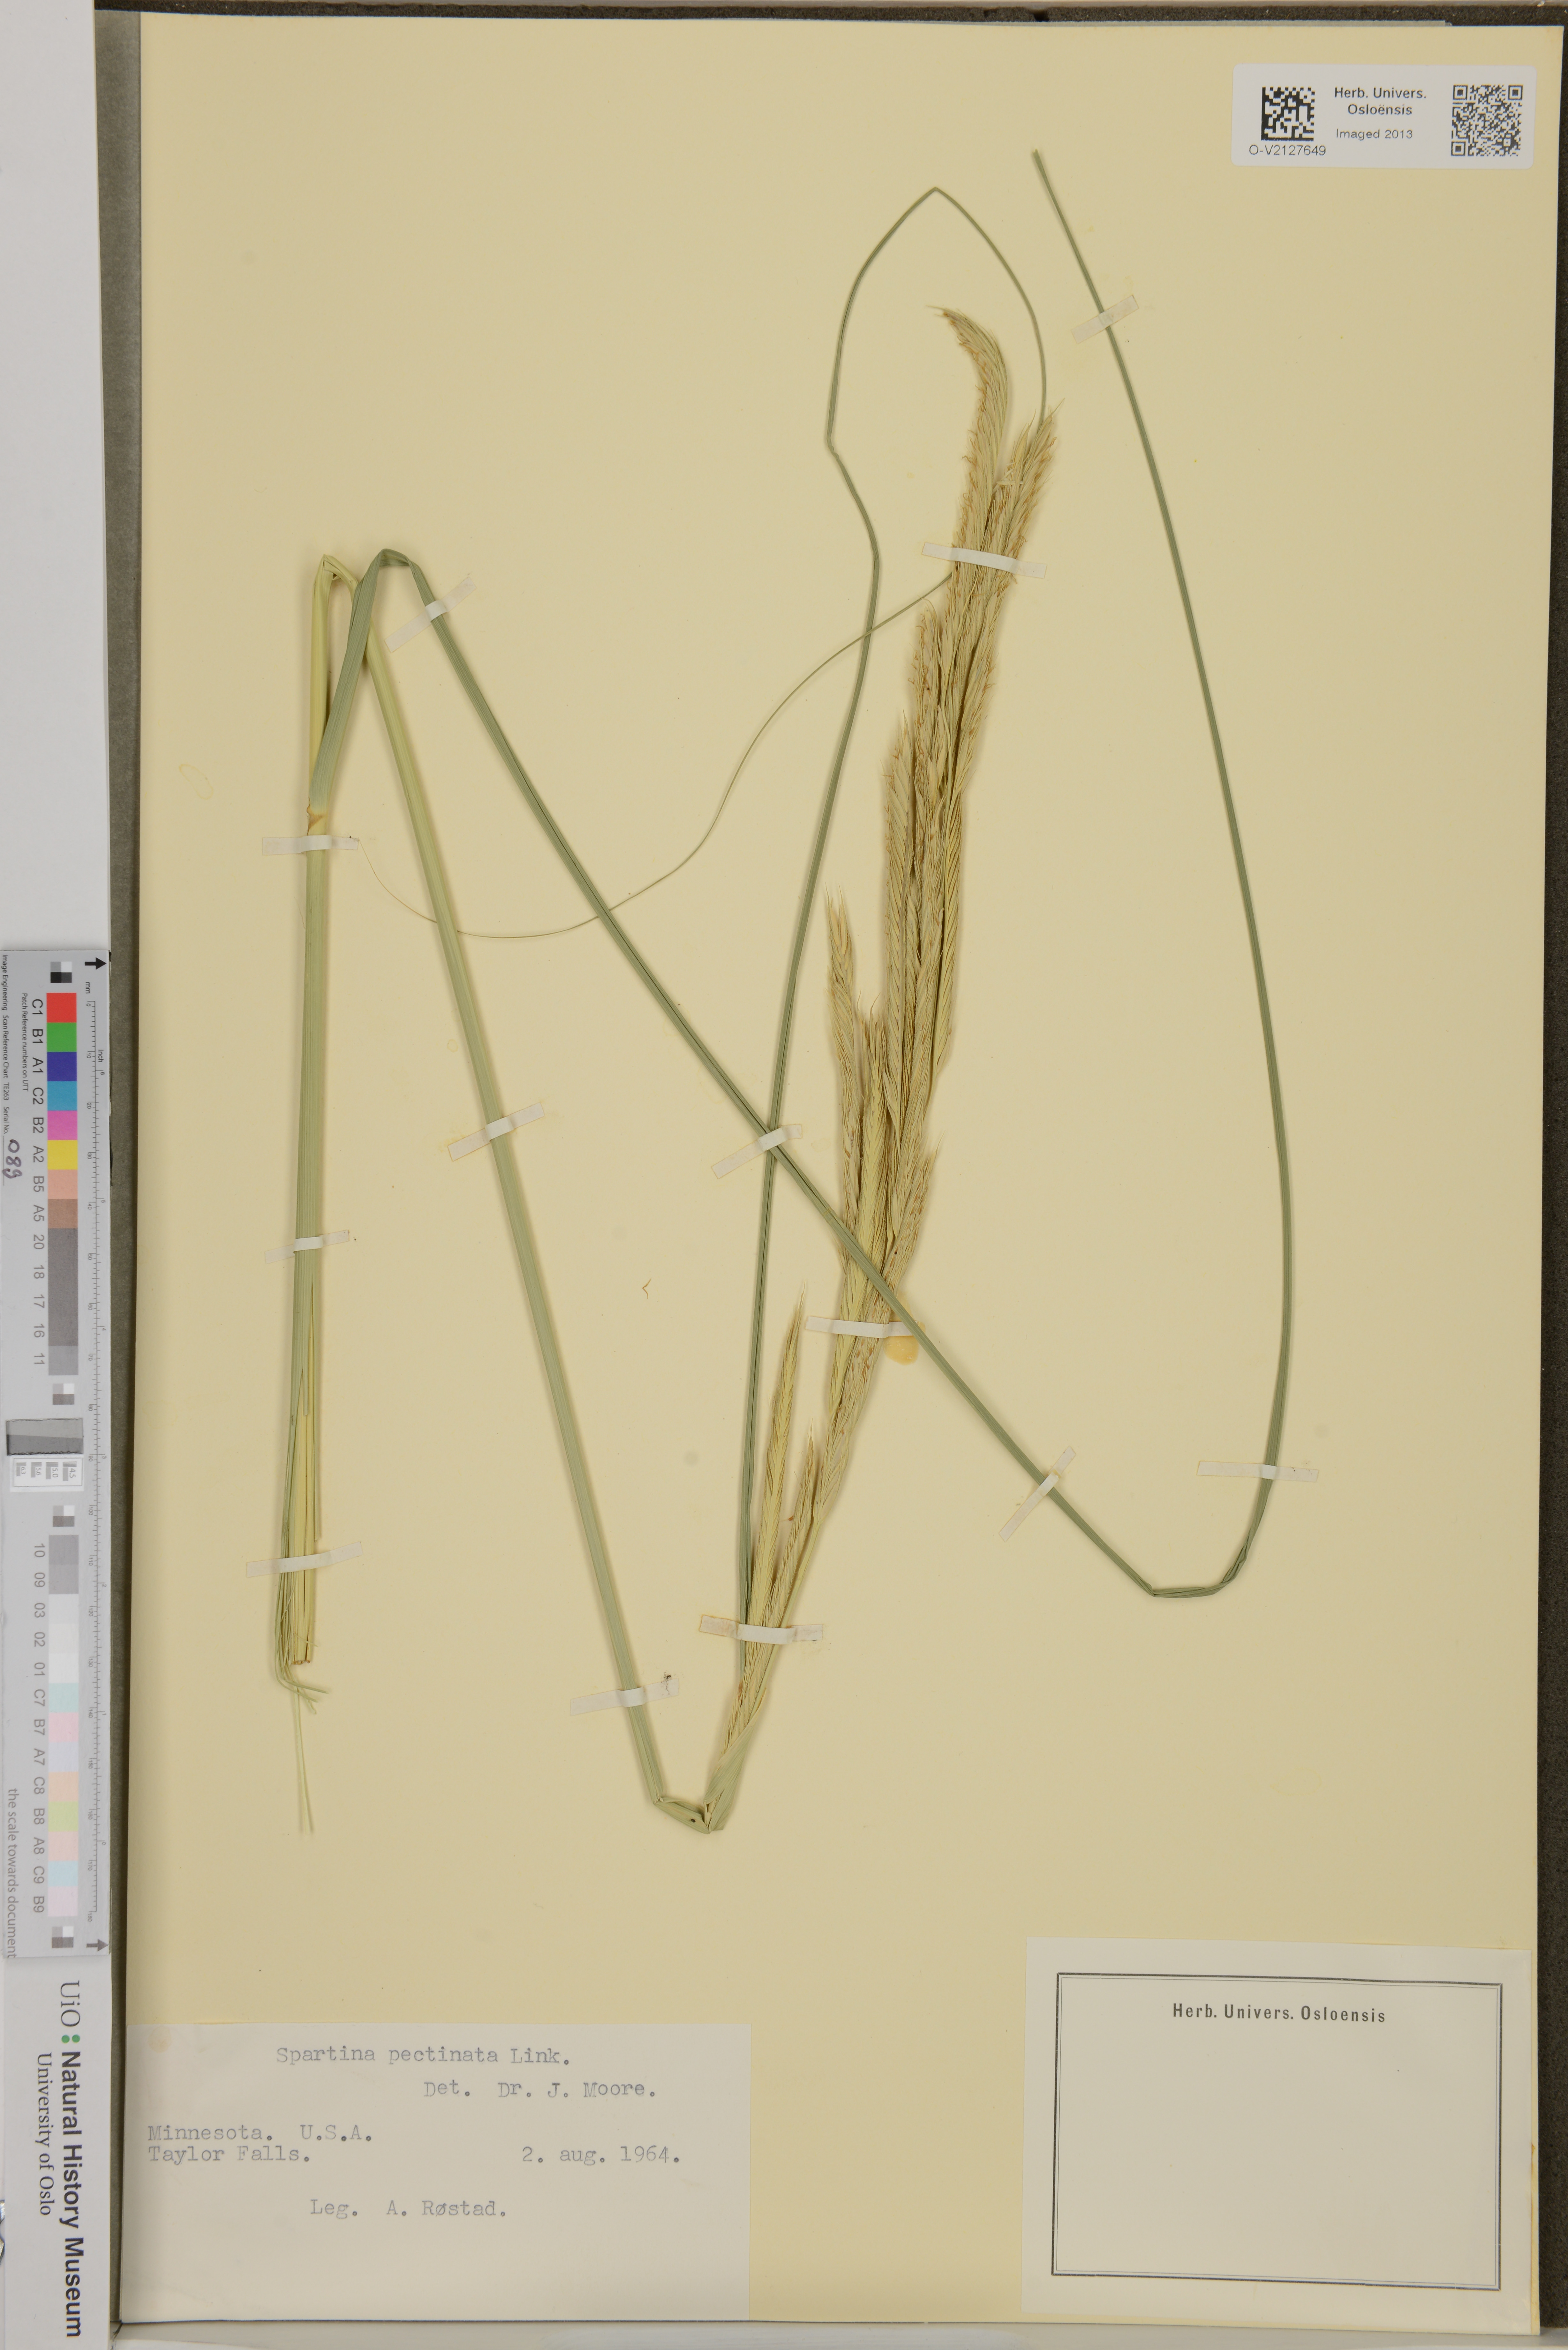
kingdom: Plantae
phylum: Tracheophyta
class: Liliopsida
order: Poales
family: Poaceae
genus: Sporobolus
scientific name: Sporobolus michauxianus
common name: Freshwater cordgrass
